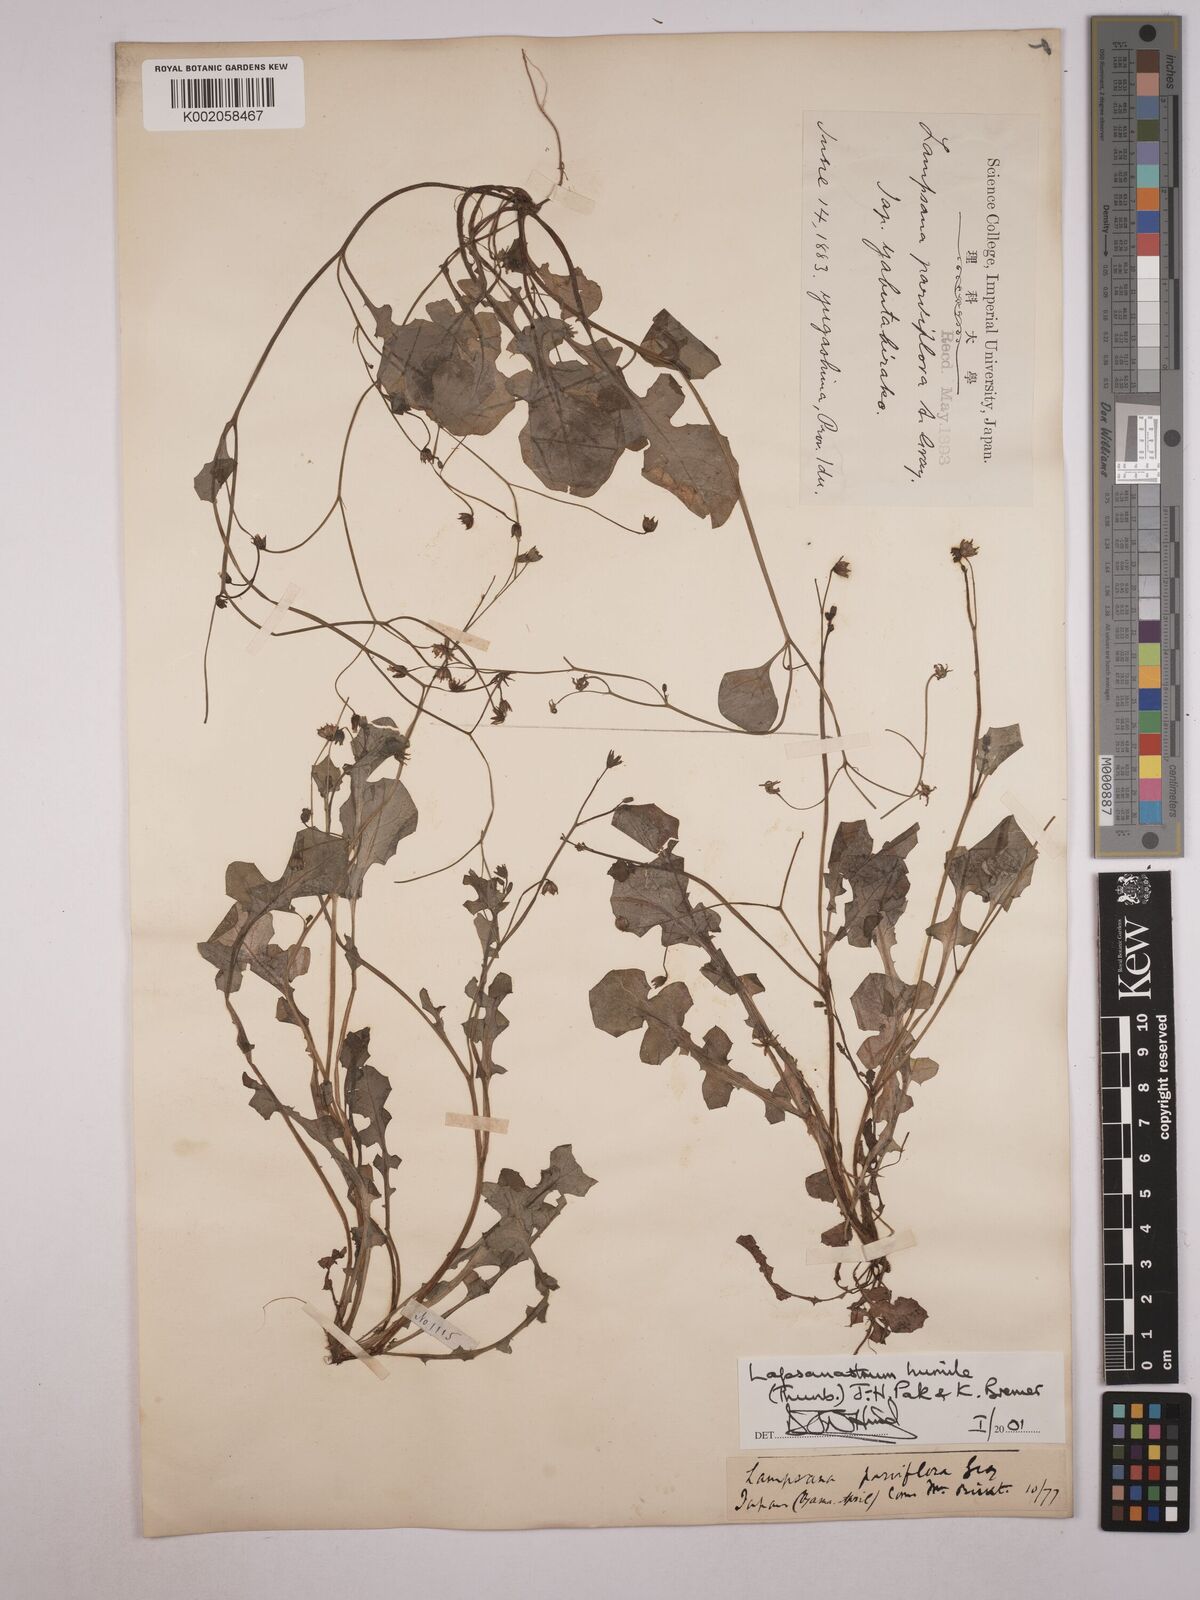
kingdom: Plantae
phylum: Tracheophyta
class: Magnoliopsida
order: Asterales
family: Asteraceae
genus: Lapsanastrum
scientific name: Lapsanastrum humile
